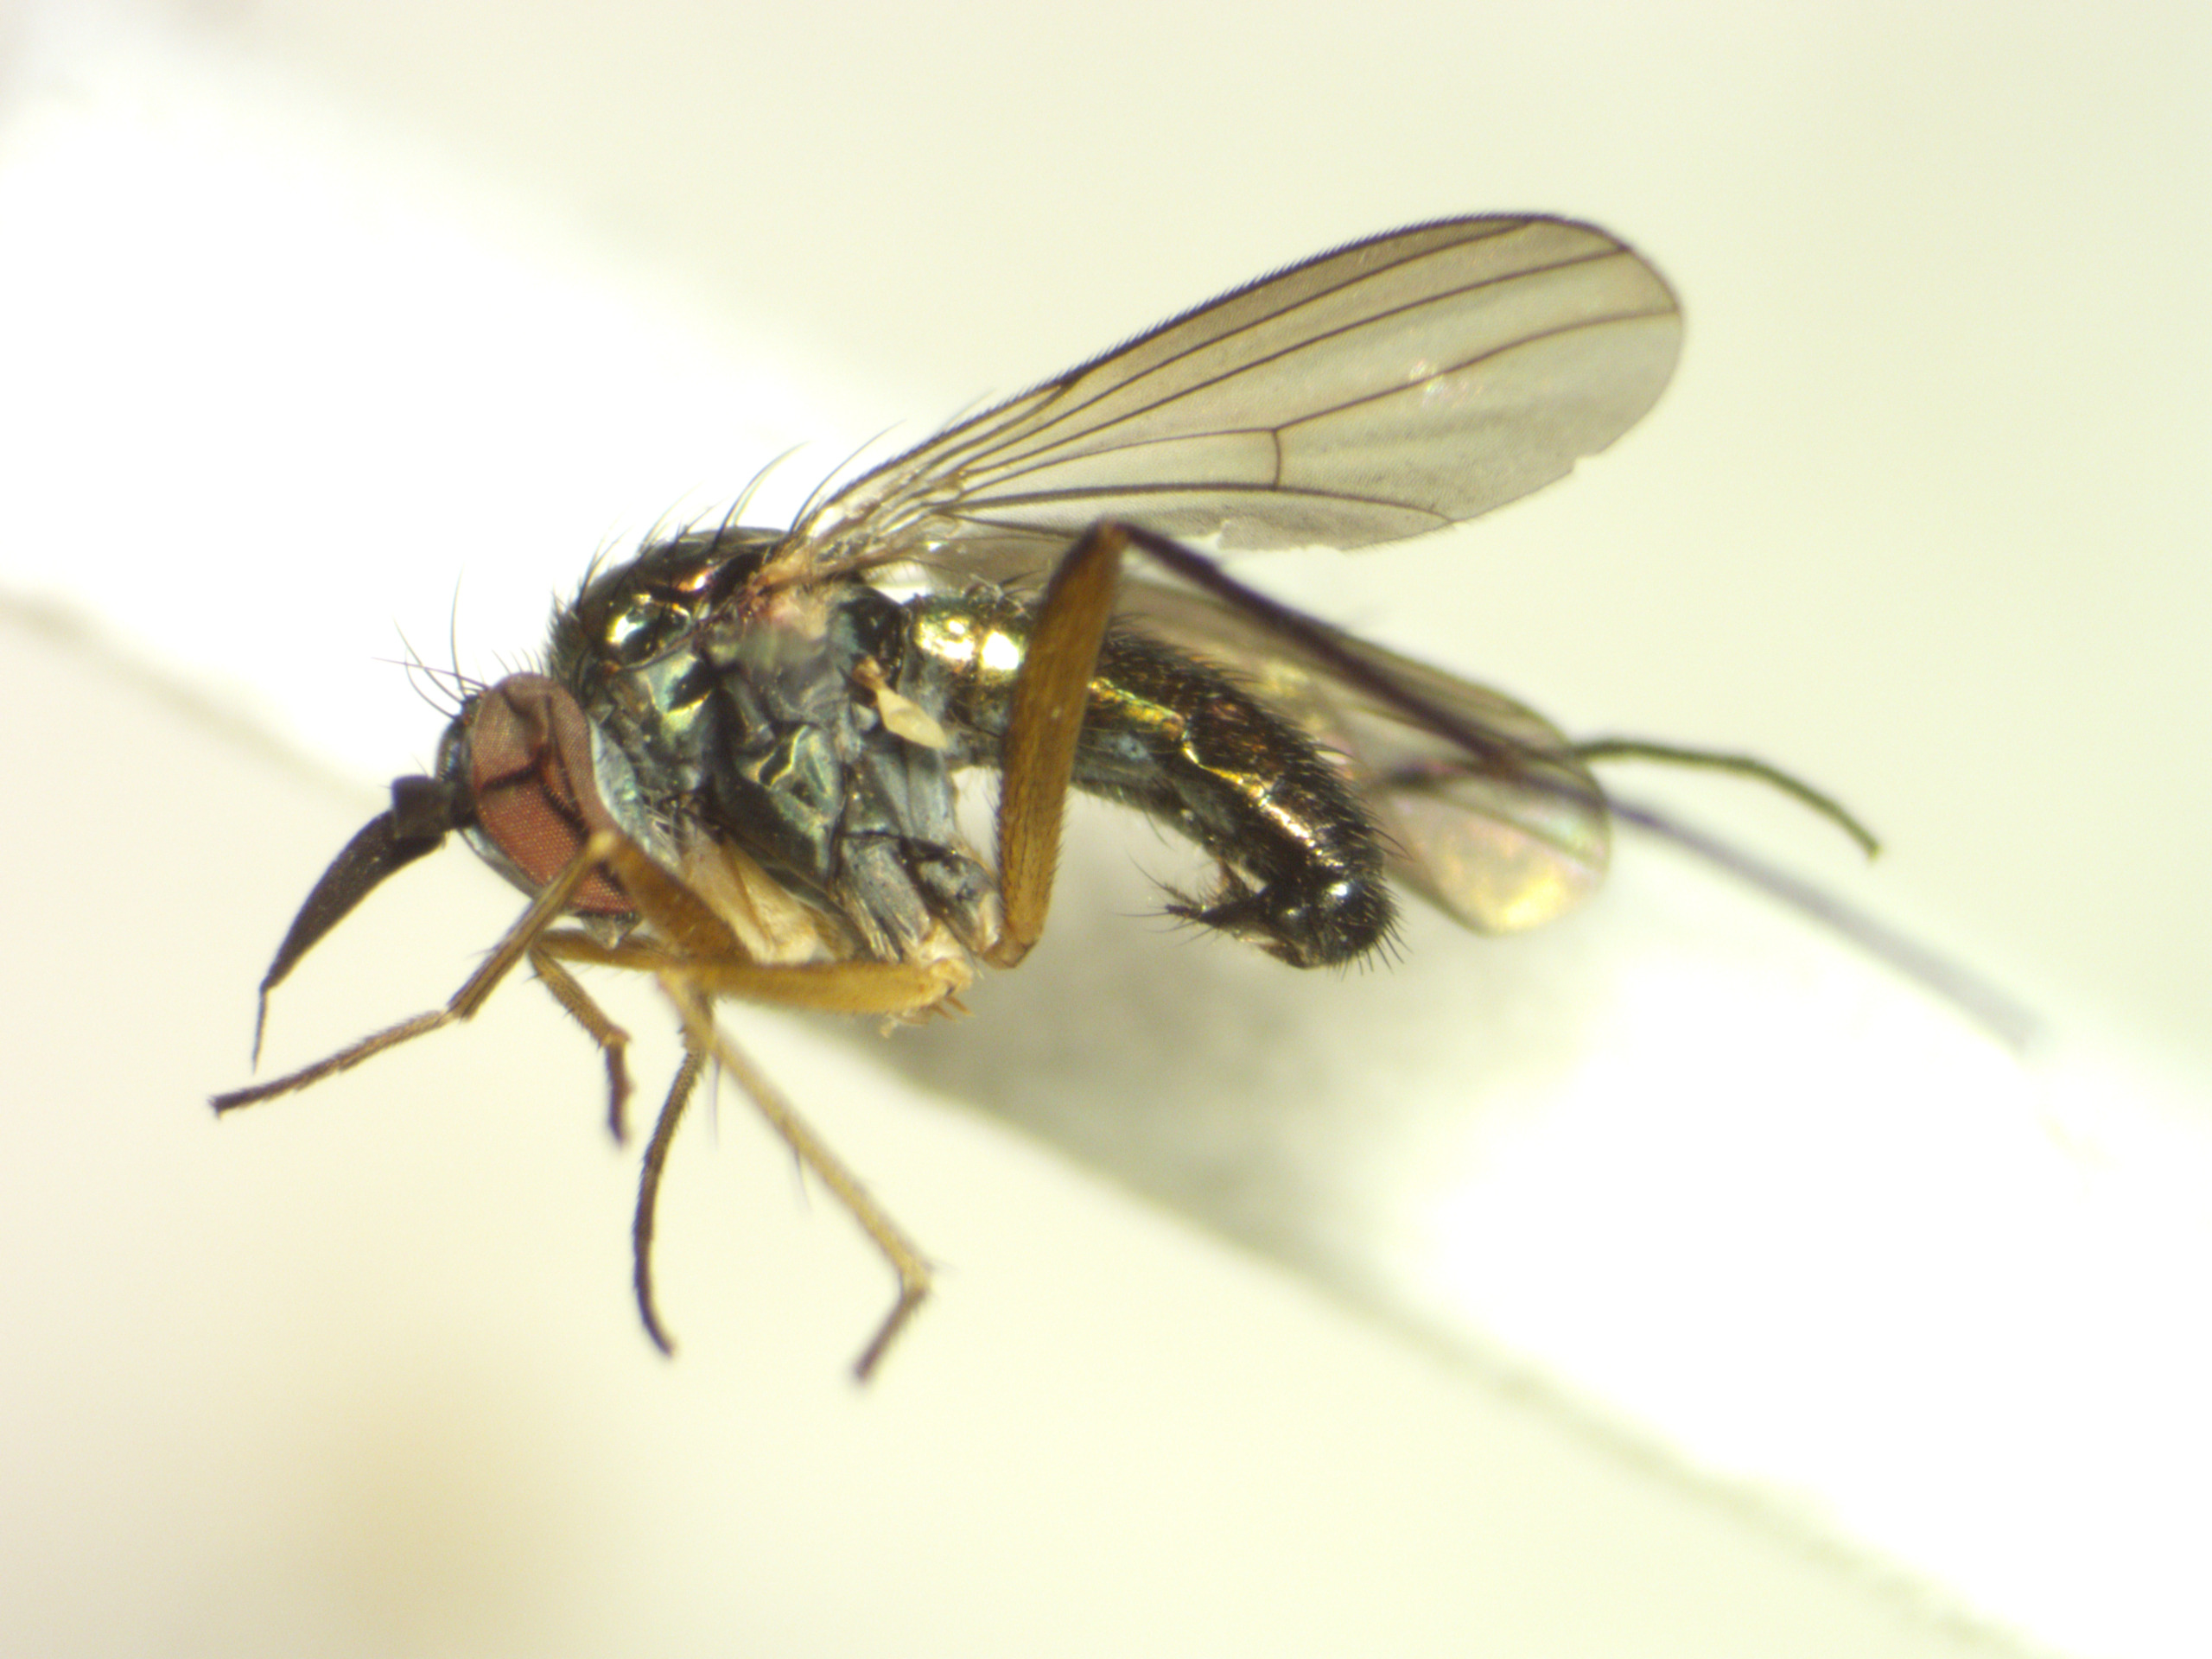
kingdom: Animalia
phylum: Arthropoda
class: Insecta
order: Diptera
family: Dolichopodidae
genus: Rhaphium
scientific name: Rhaphium auctum
